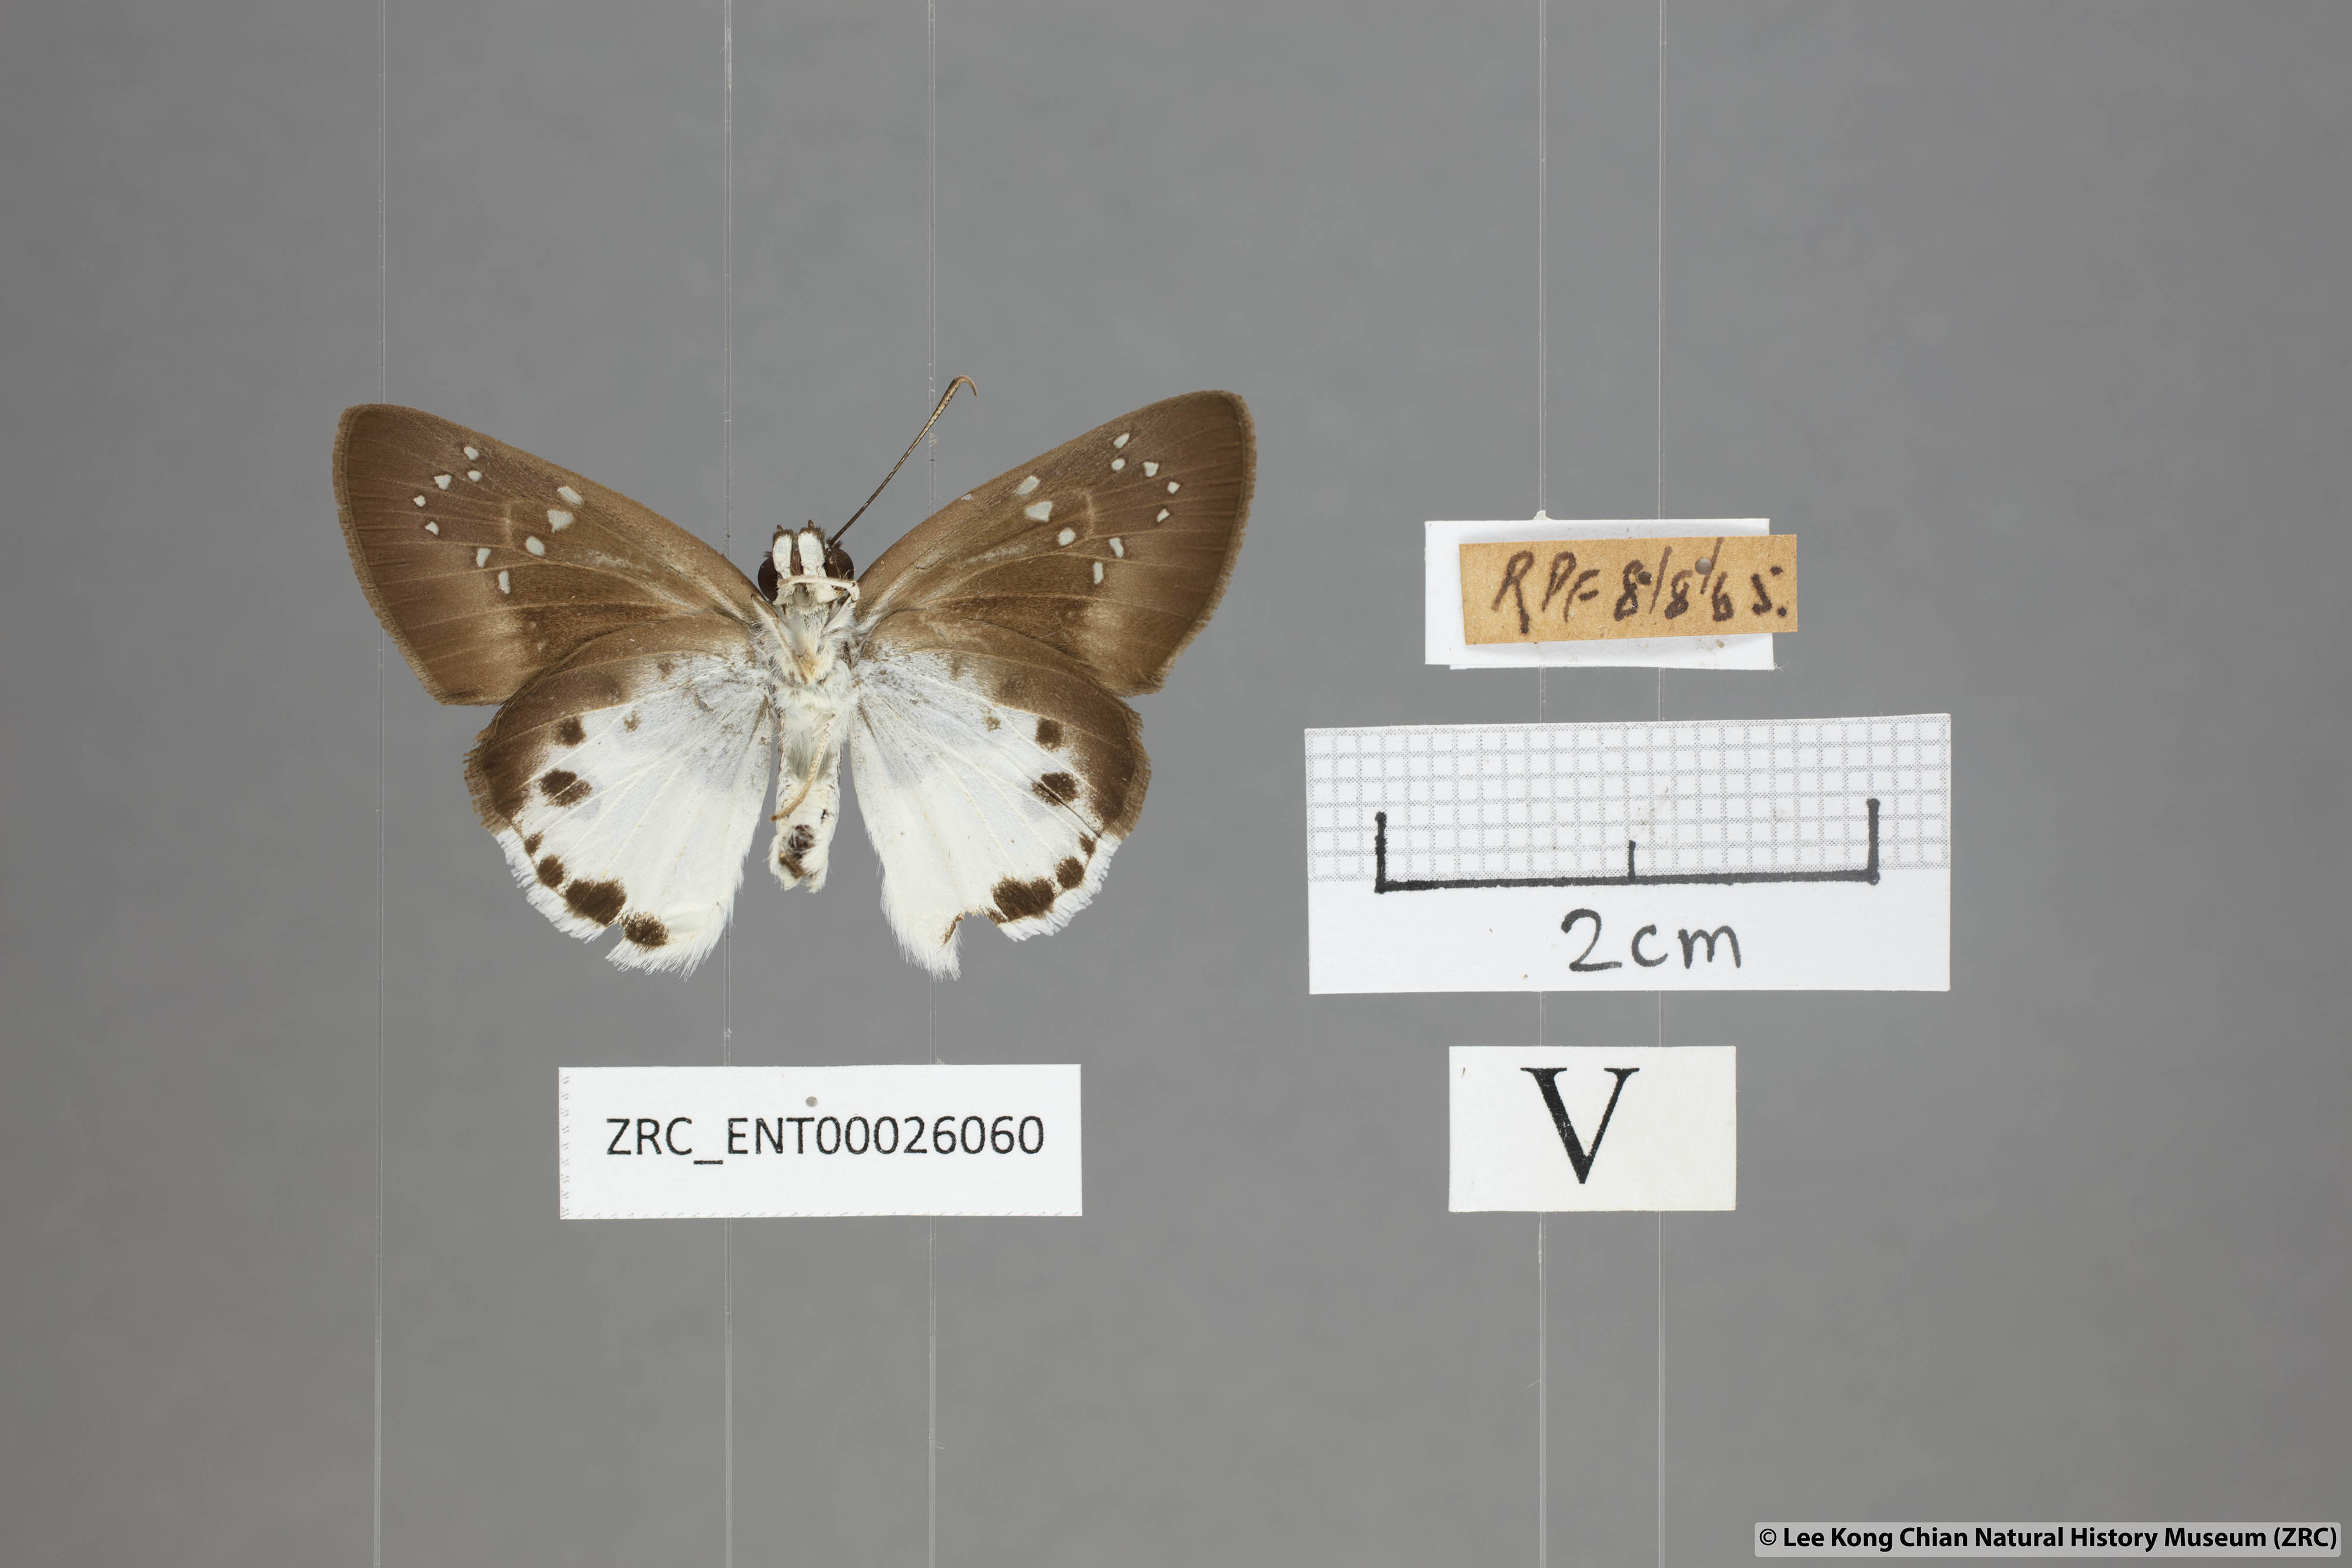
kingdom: Animalia
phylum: Arthropoda
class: Insecta
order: Lepidoptera
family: Hesperiidae
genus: Tagiades
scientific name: Tagiades litigiosa
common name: Water snow flat
